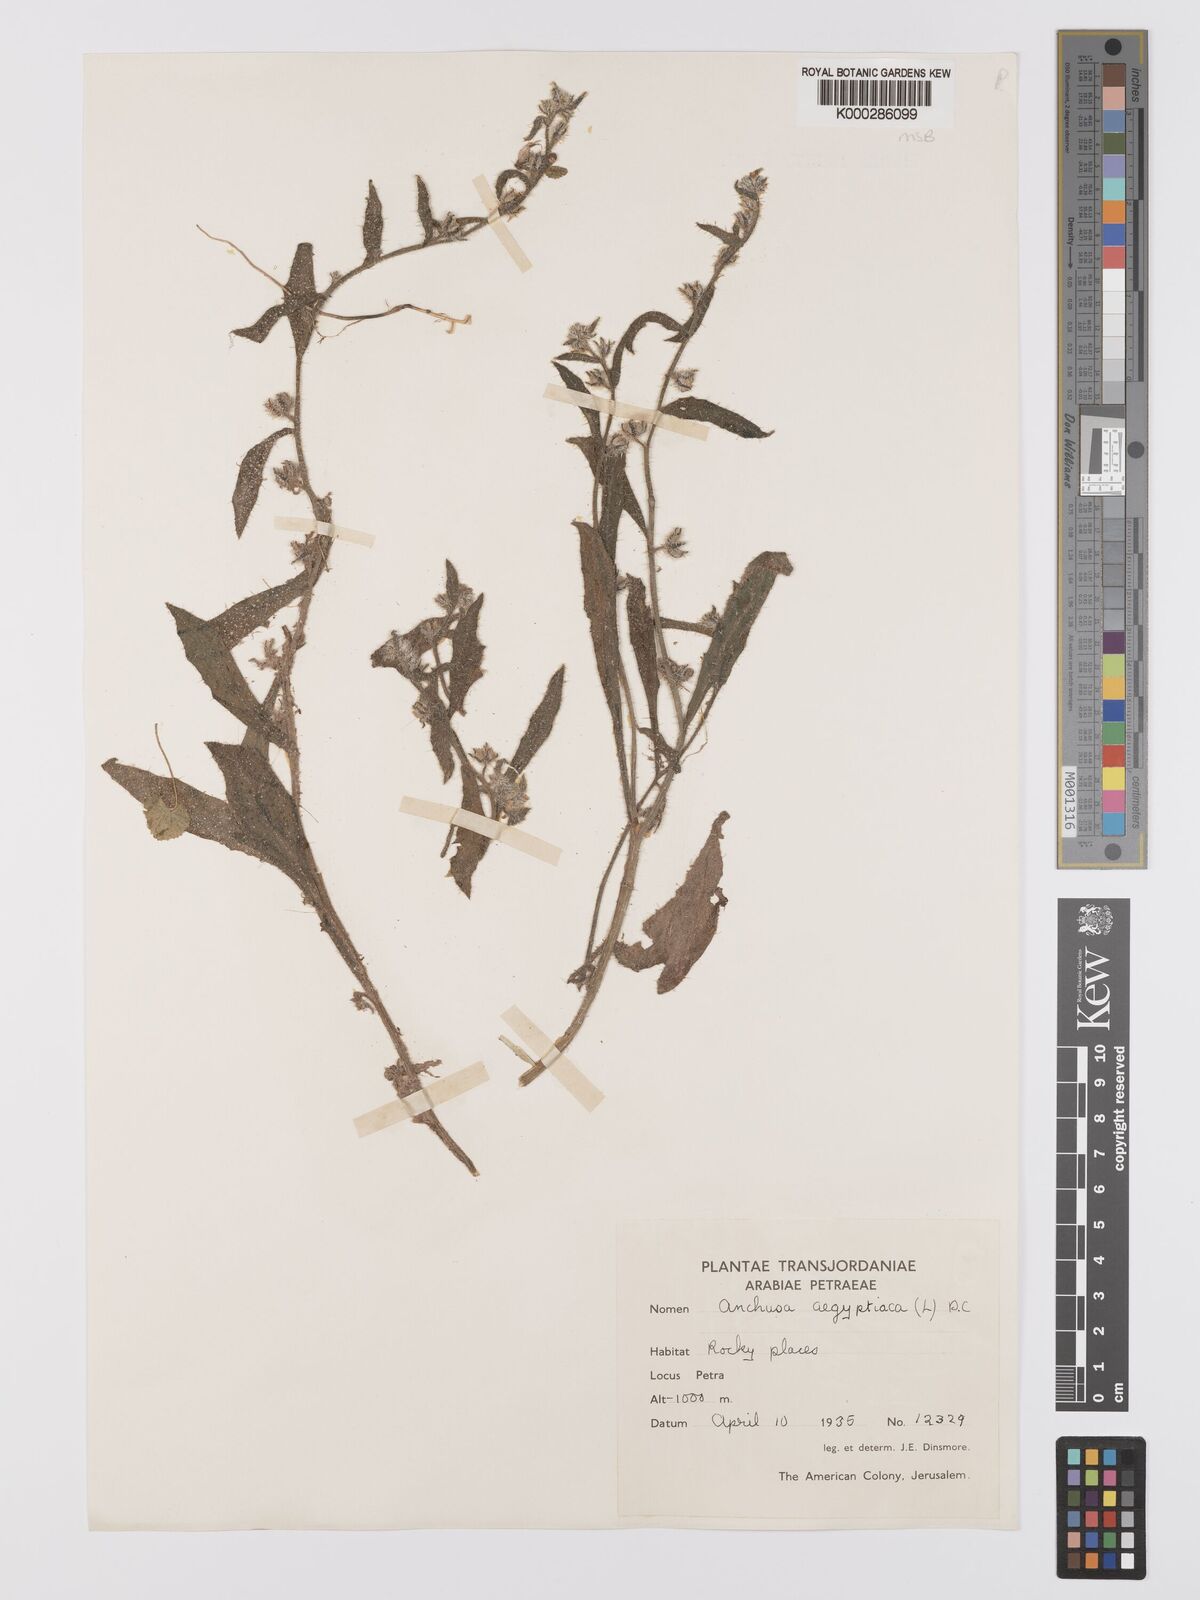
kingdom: Plantae
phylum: Tracheophyta
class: Magnoliopsida
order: Boraginales
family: Boraginaceae
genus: Lycopsis
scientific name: Lycopsis aegyptiaca
